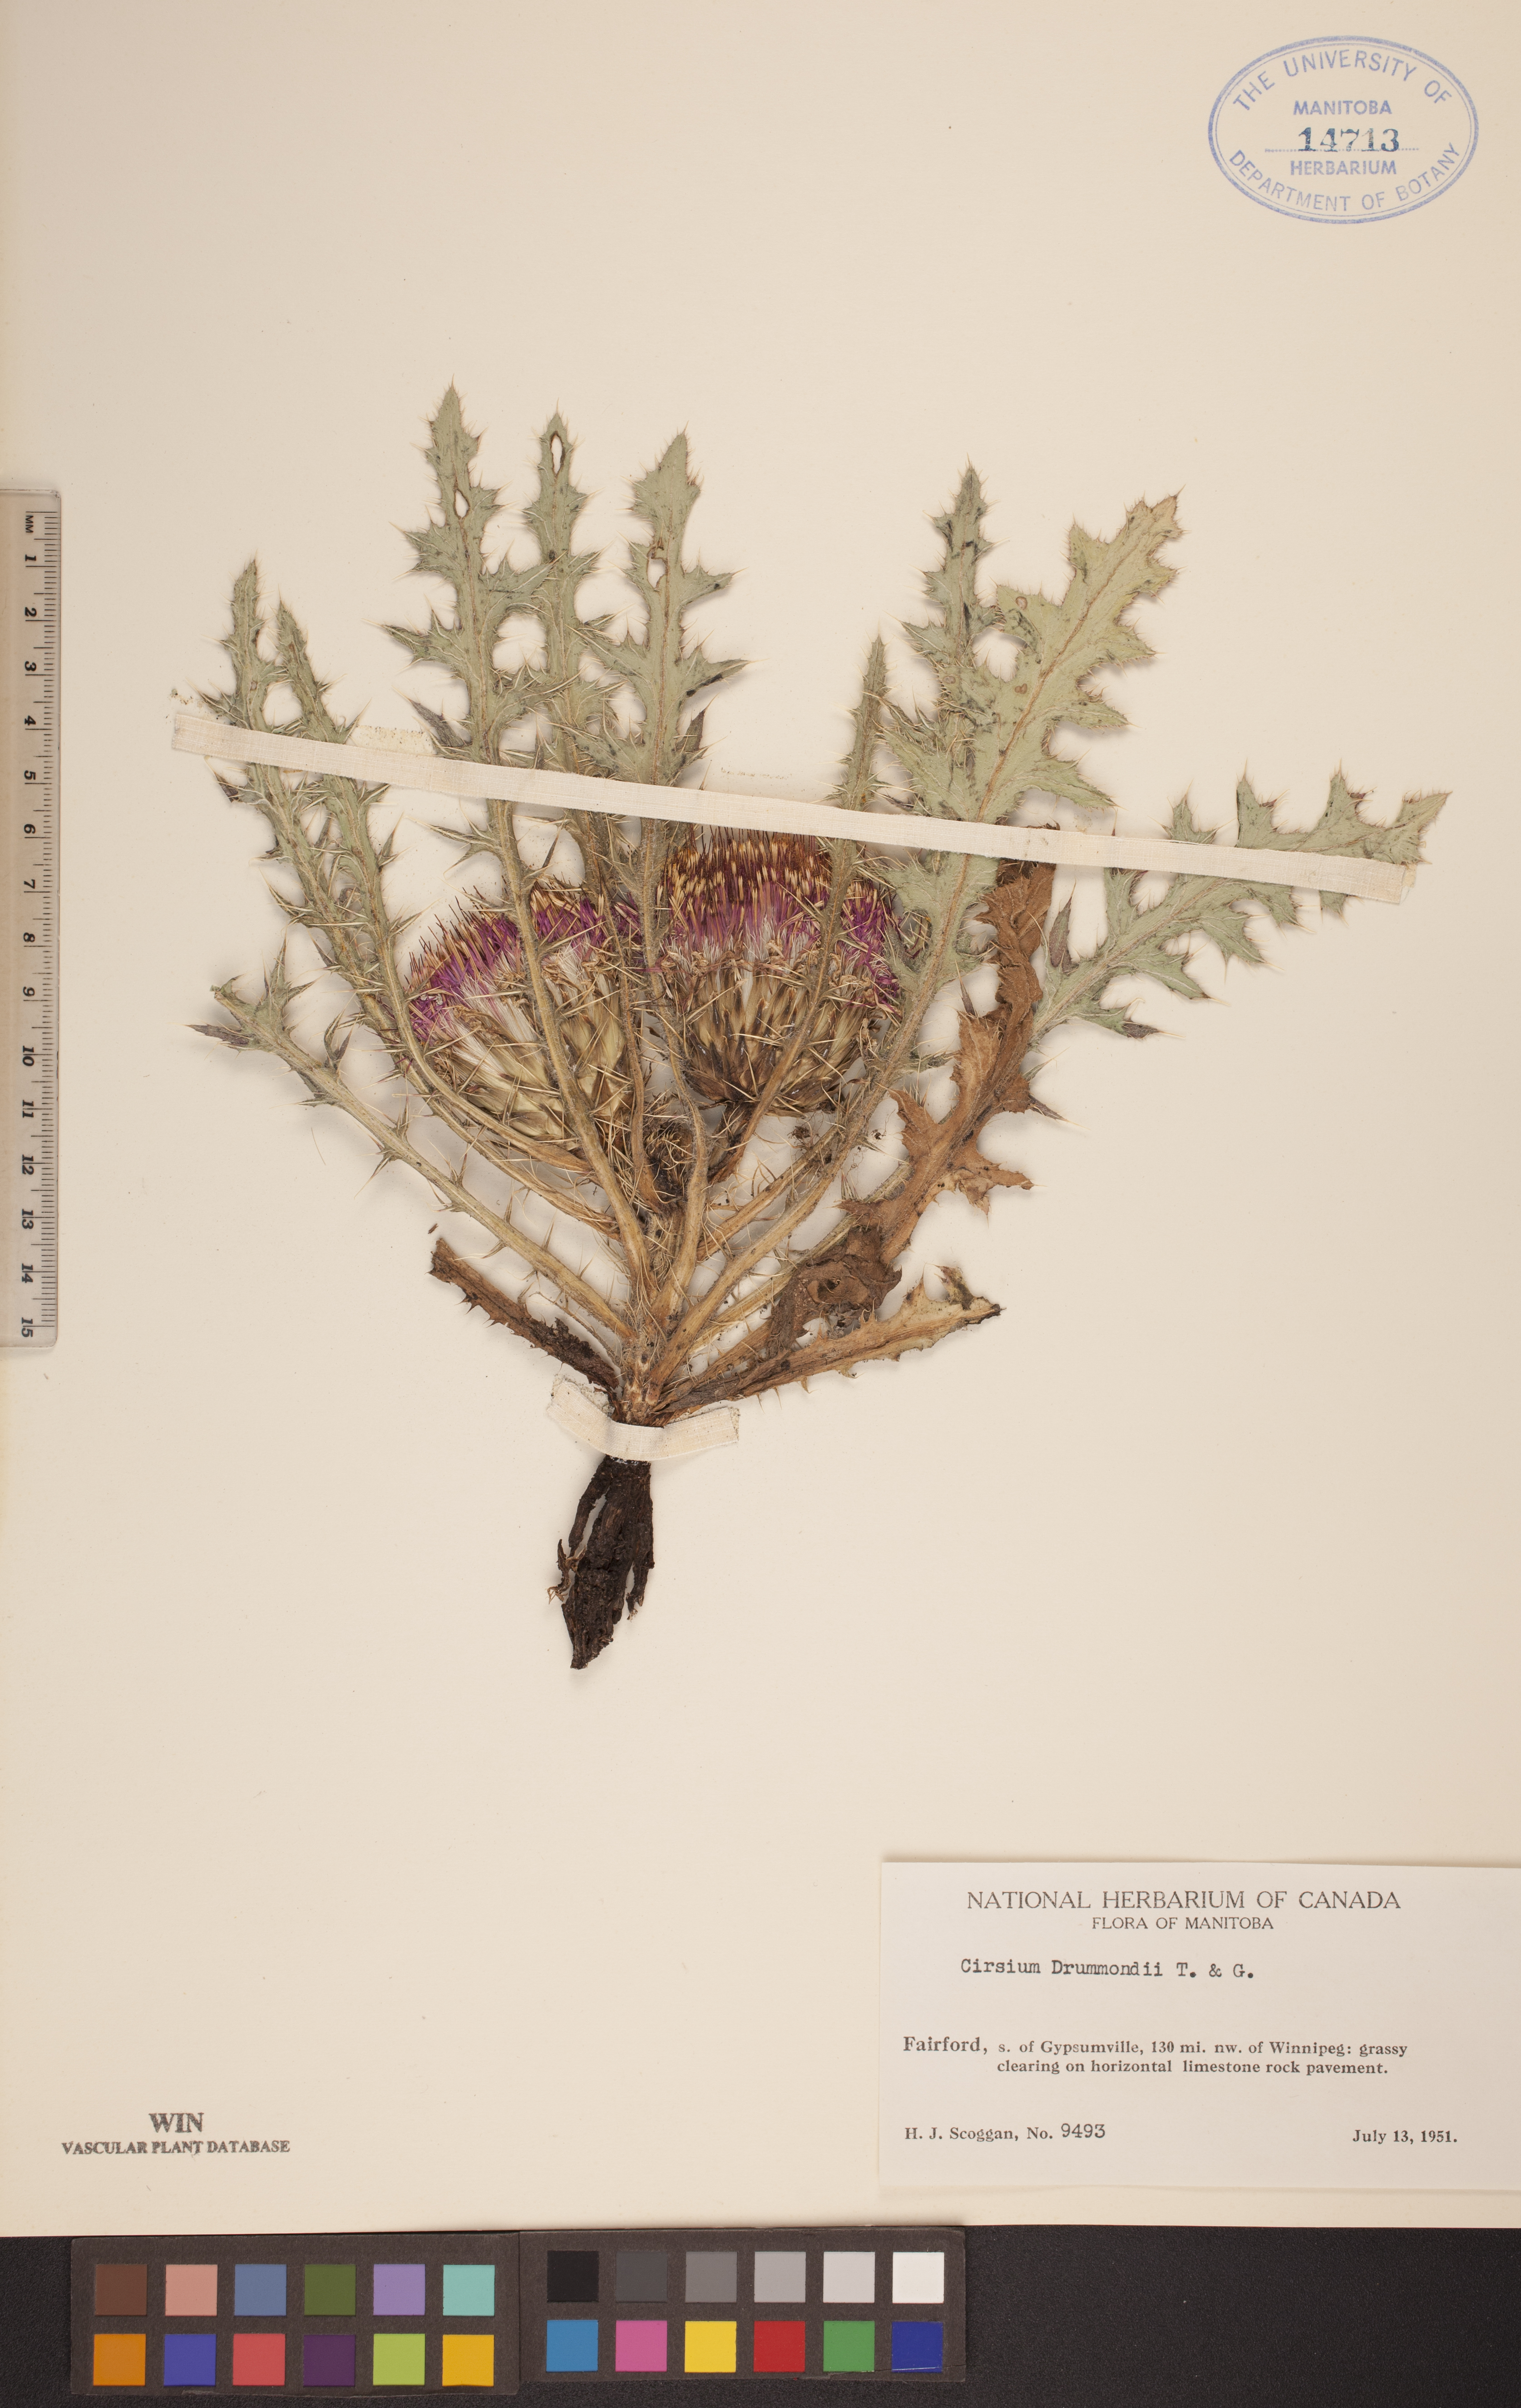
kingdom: Plantae
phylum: Tracheophyta
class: Magnoliopsida
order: Asterales
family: Asteraceae
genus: Cirsium
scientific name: Cirsium drummondii
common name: Drummond's thistle
